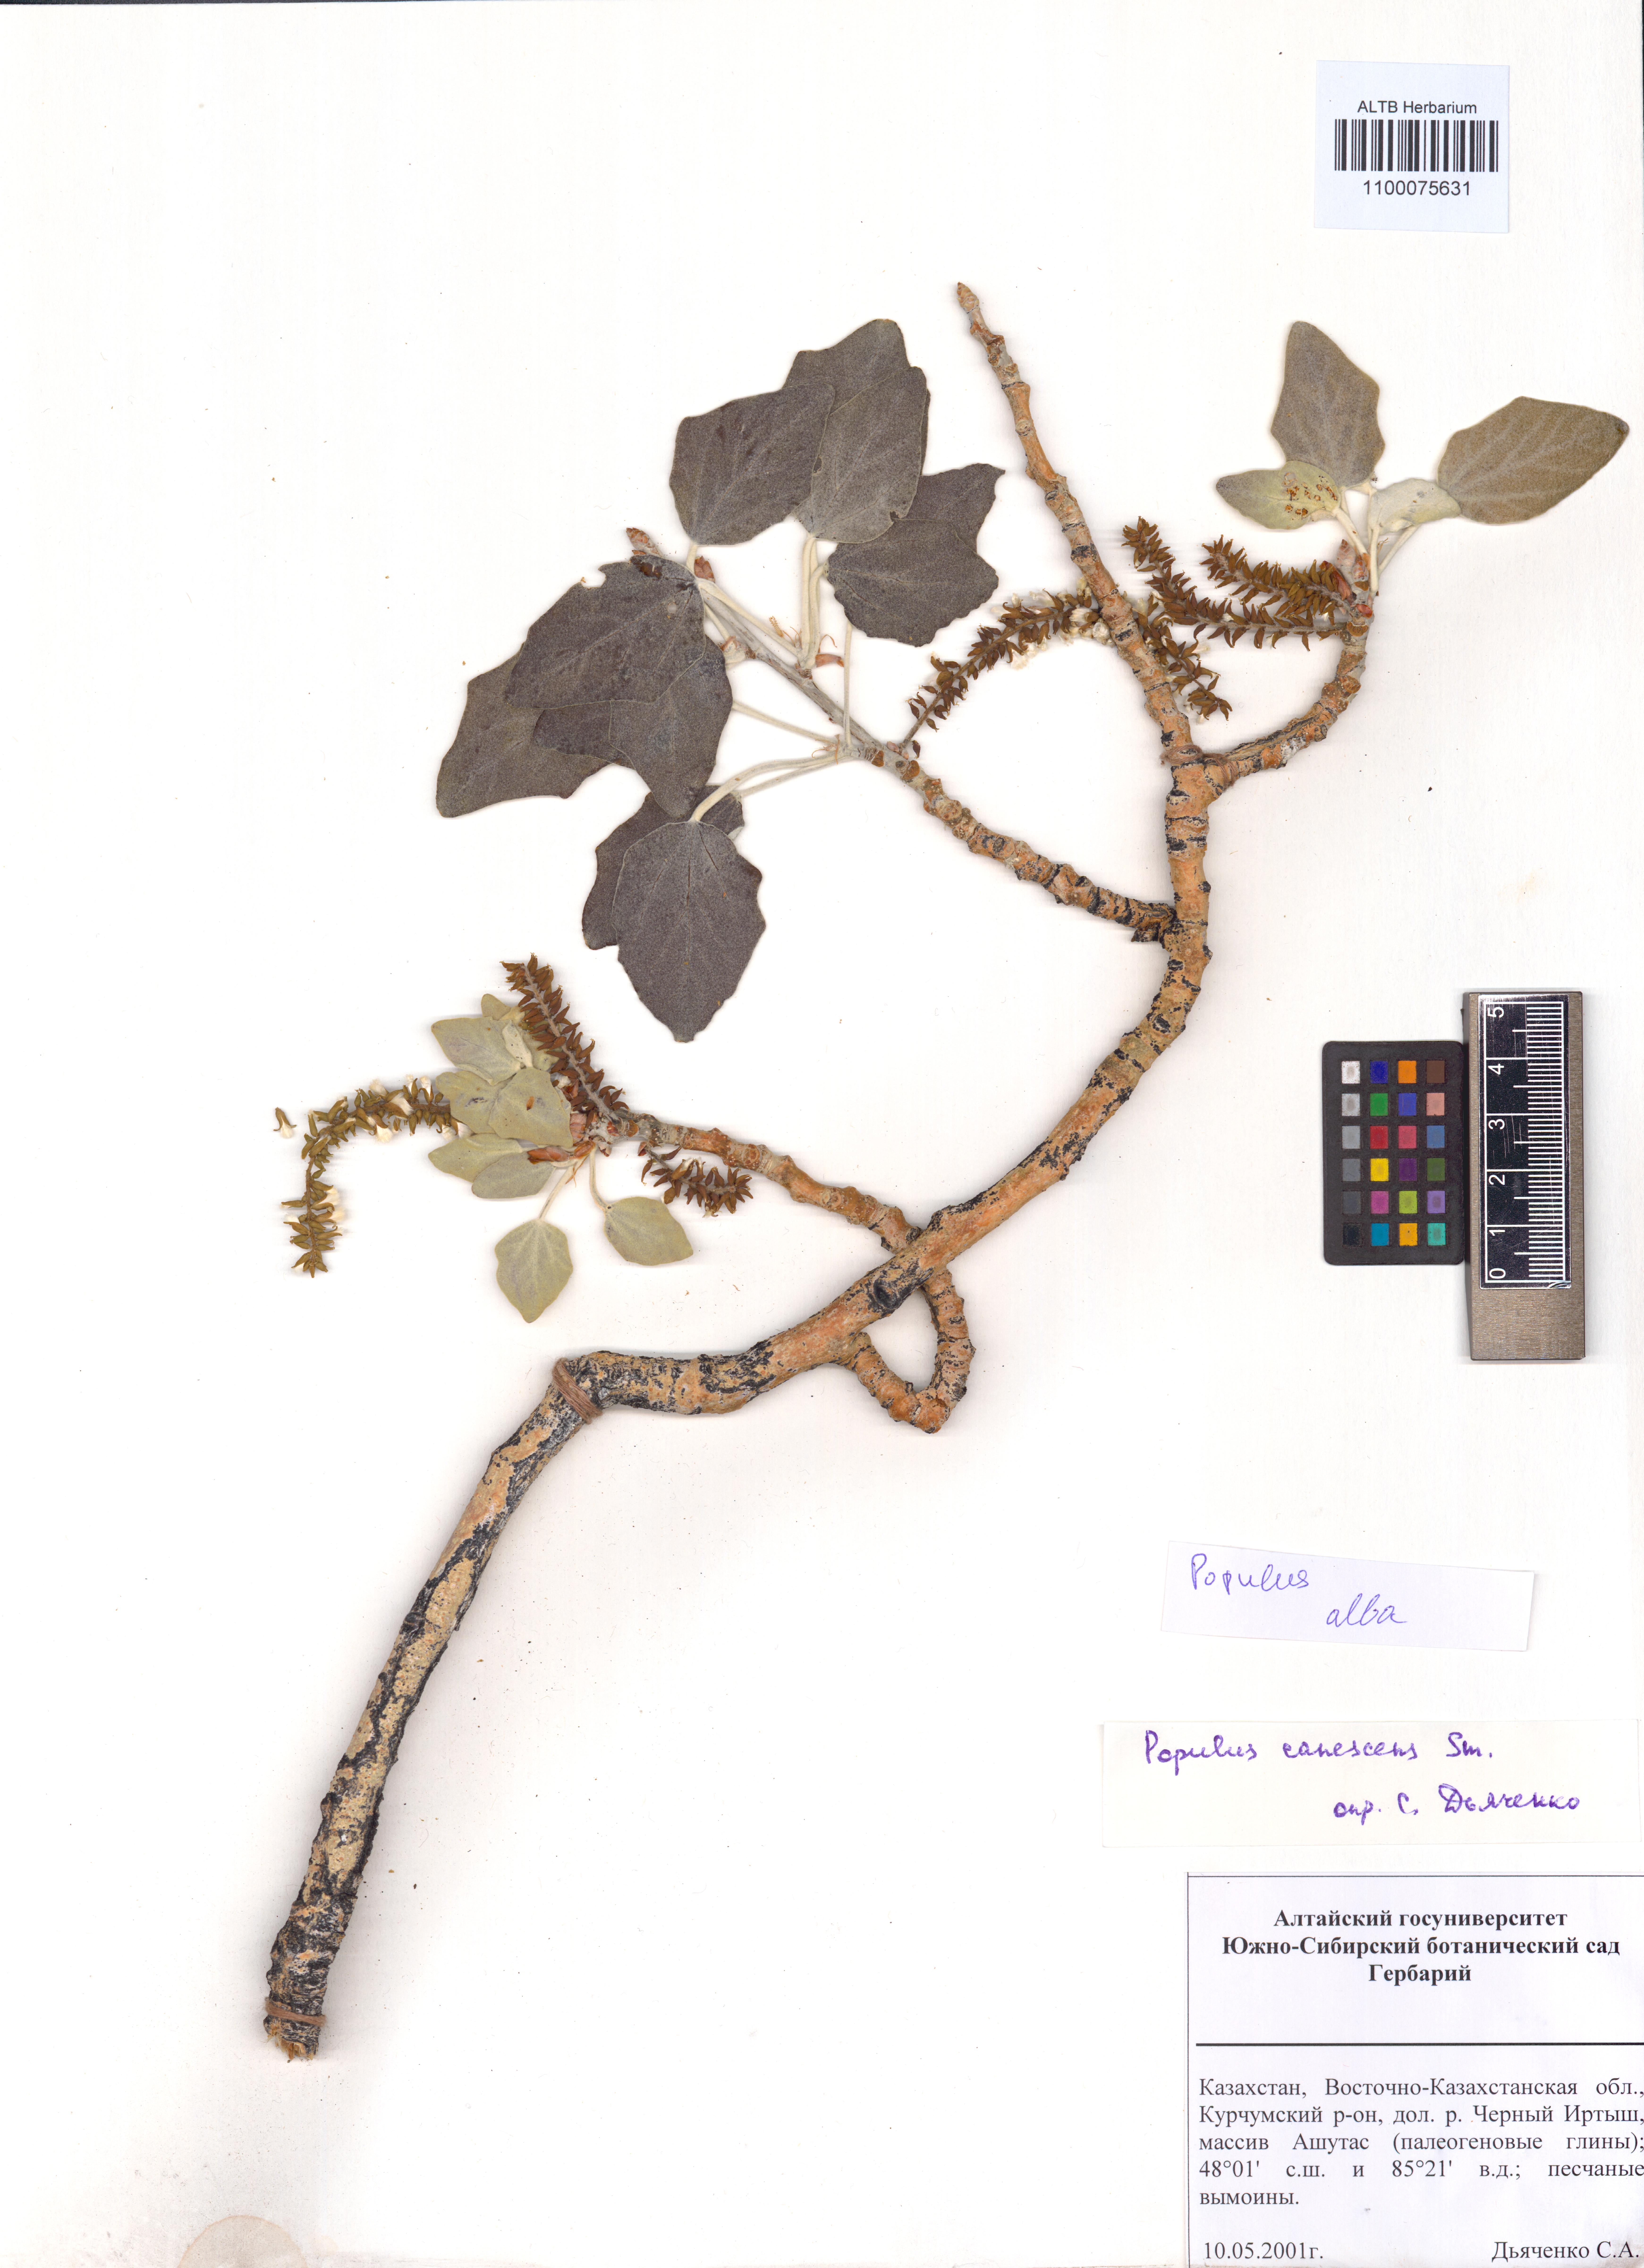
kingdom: Plantae
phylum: Tracheophyta
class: Magnoliopsida
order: Malpighiales
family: Salicaceae
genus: Populus
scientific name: Populus alba
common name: White poplar
